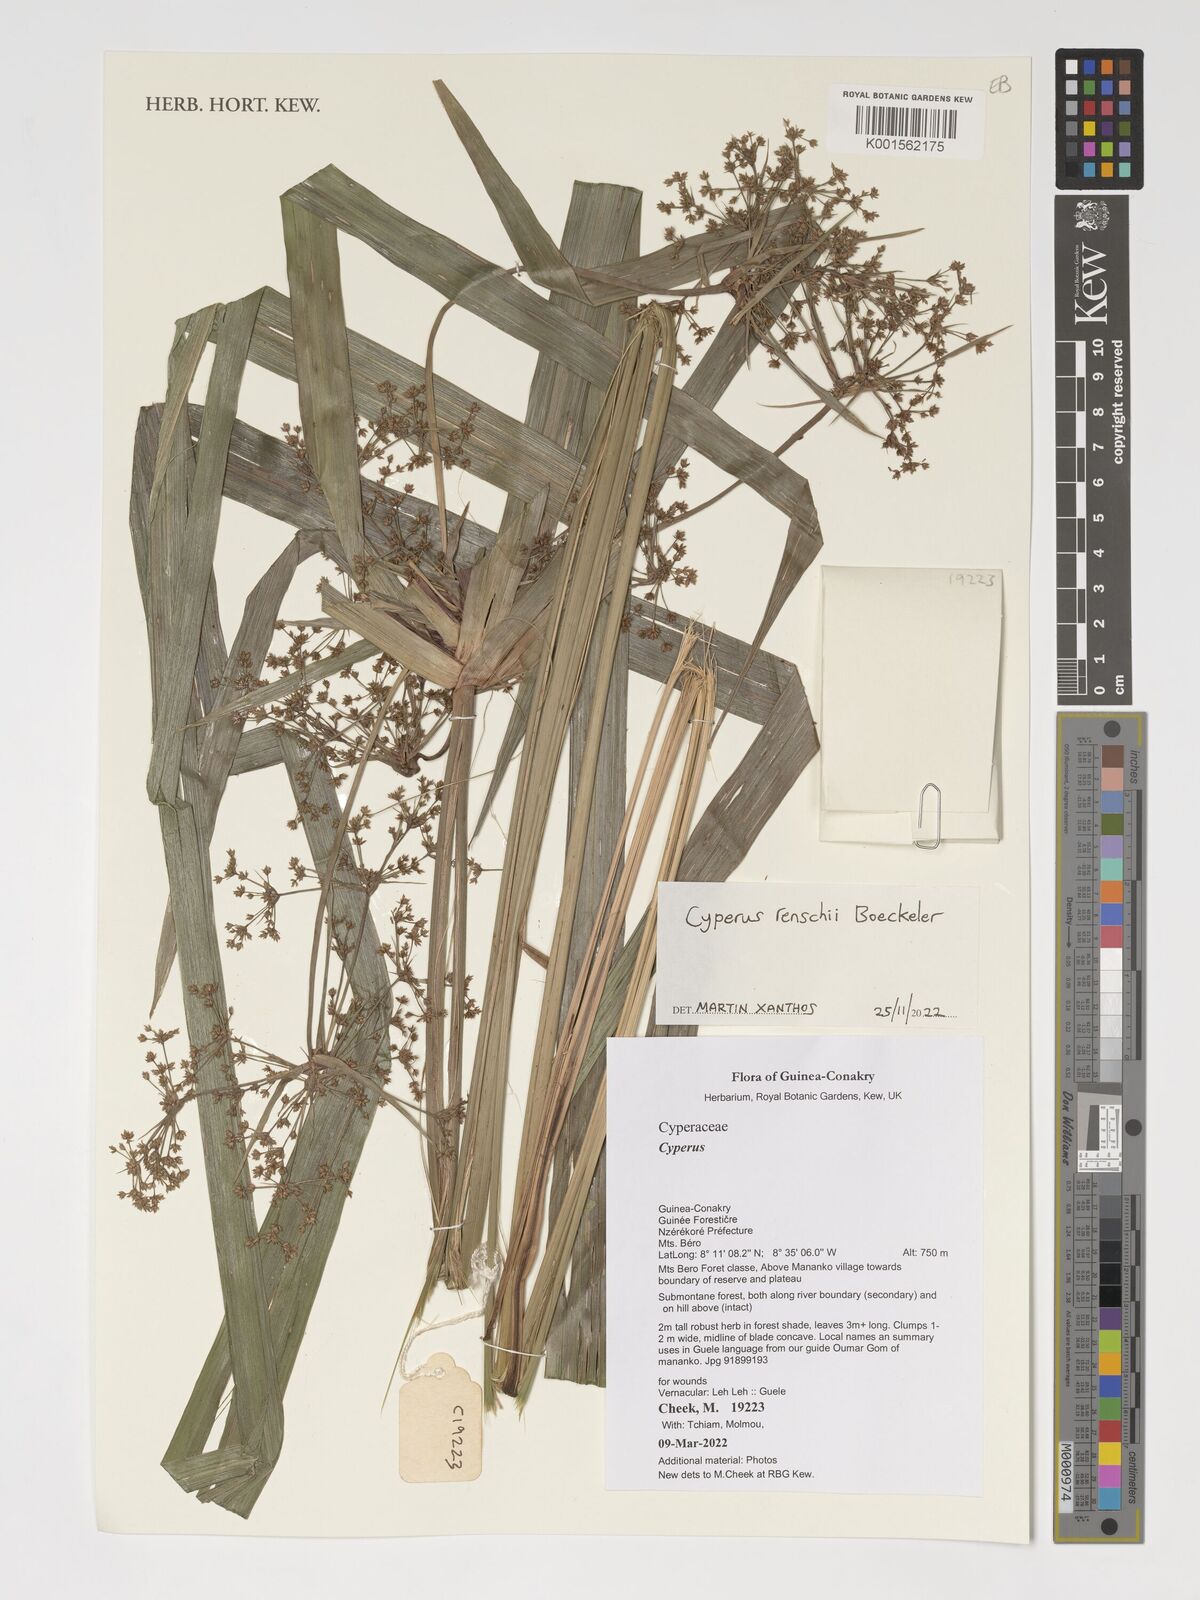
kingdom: Plantae
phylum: Tracheophyta
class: Liliopsida
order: Poales
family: Cyperaceae
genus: Cyperus
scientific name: Cyperus renschii
